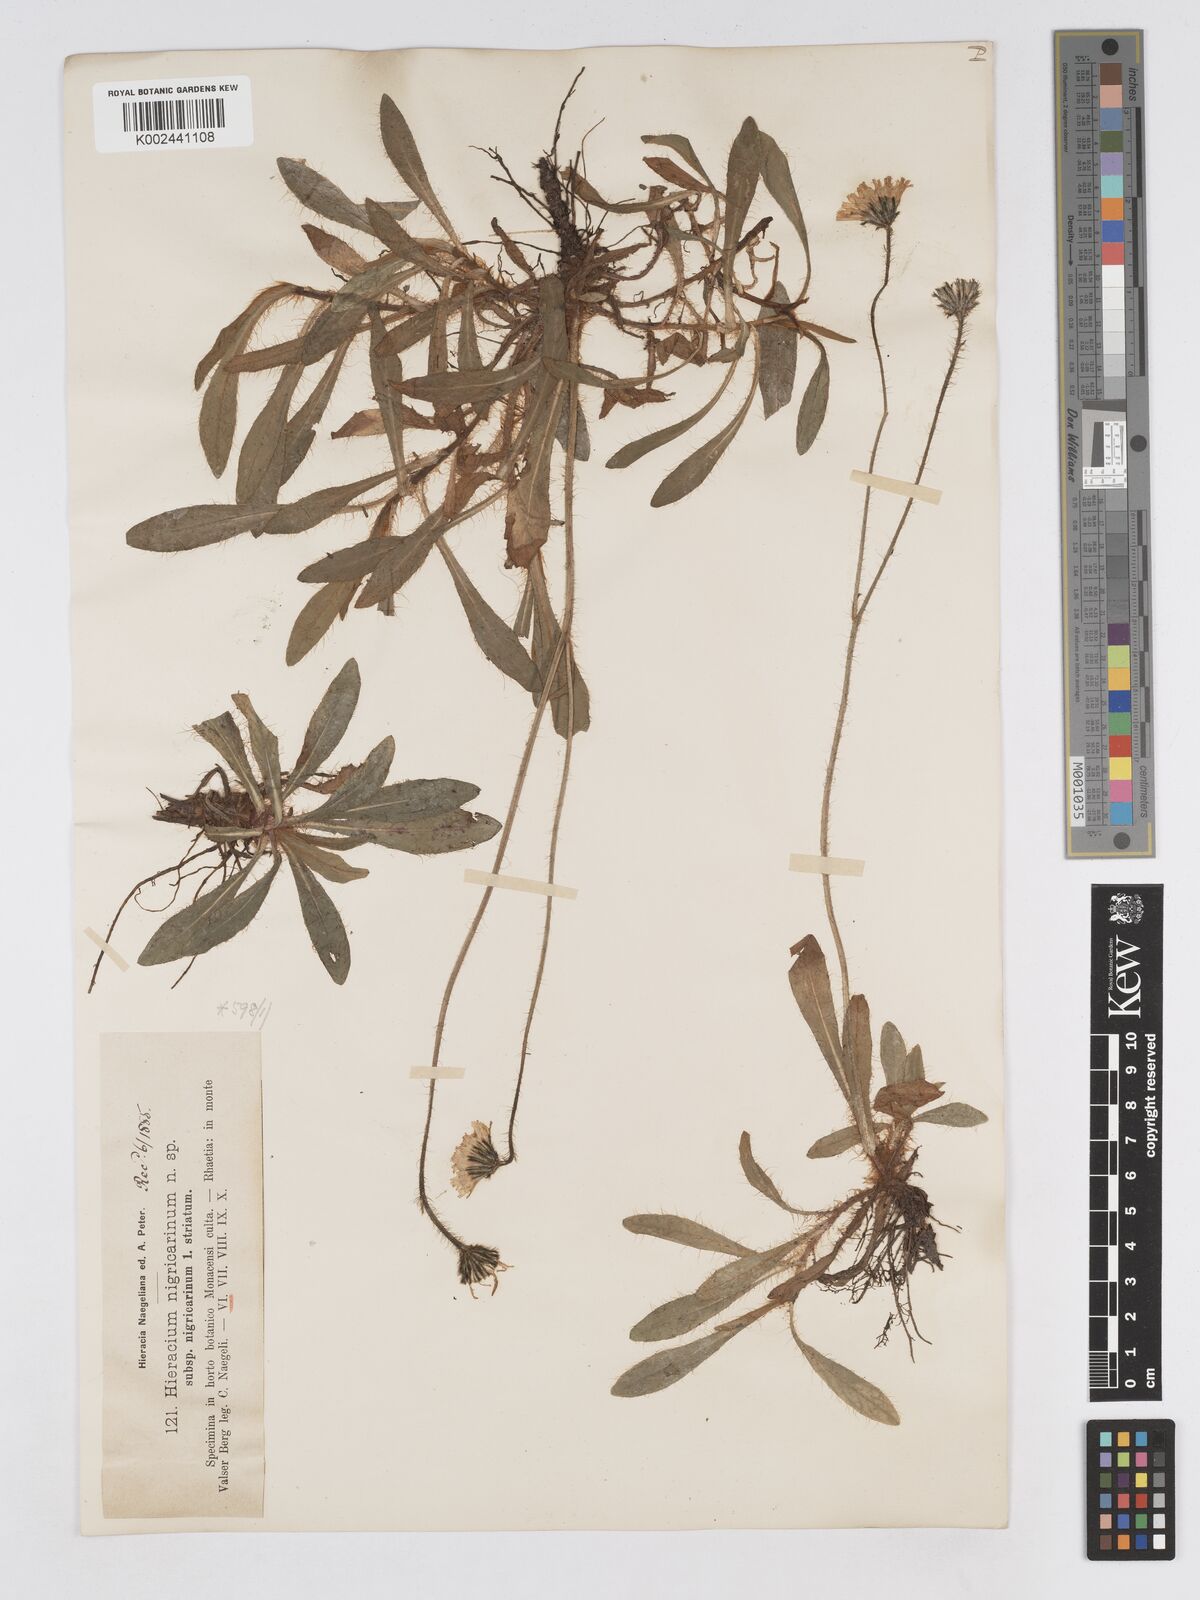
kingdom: Plantae
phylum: Tracheophyta
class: Magnoliopsida
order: Asterales
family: Asteraceae
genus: Pilosella
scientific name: Pilosella lathraea
